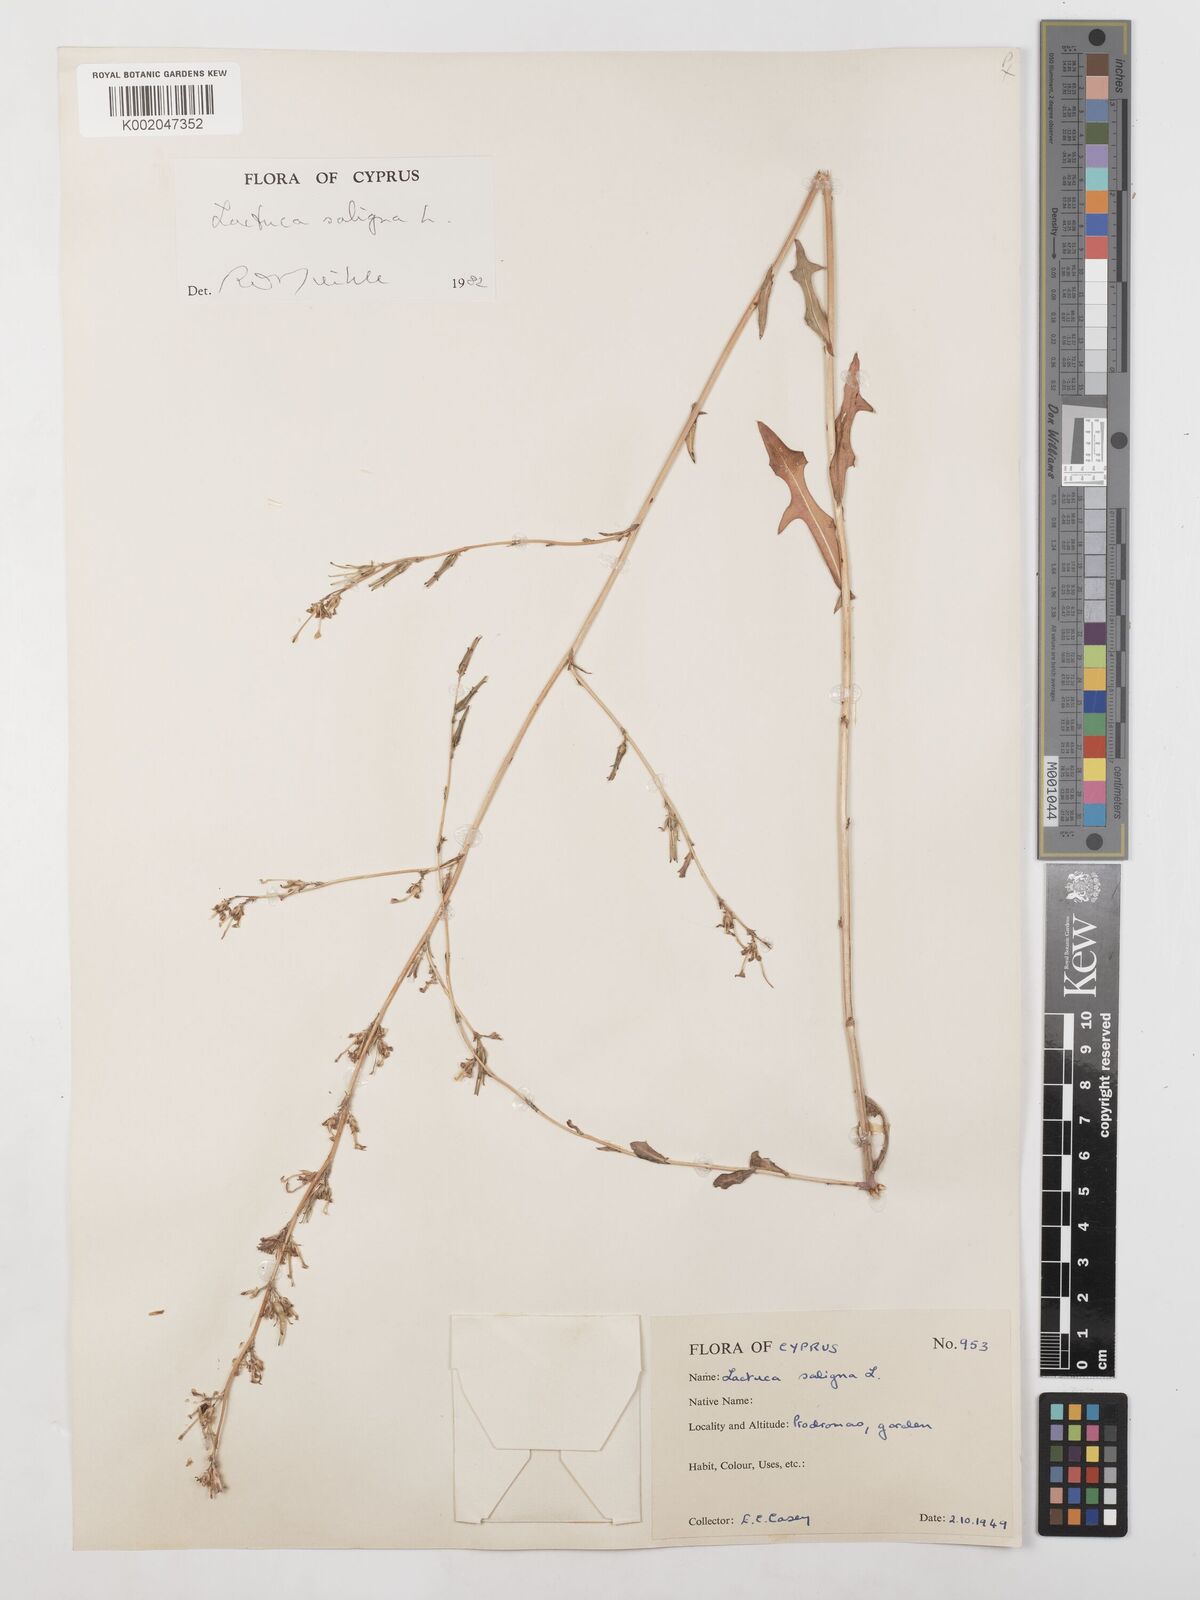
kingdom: Plantae
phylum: Tracheophyta
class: Magnoliopsida
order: Asterales
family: Asteraceae
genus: Lactuca
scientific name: Lactuca saligna
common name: Wild lettuce
